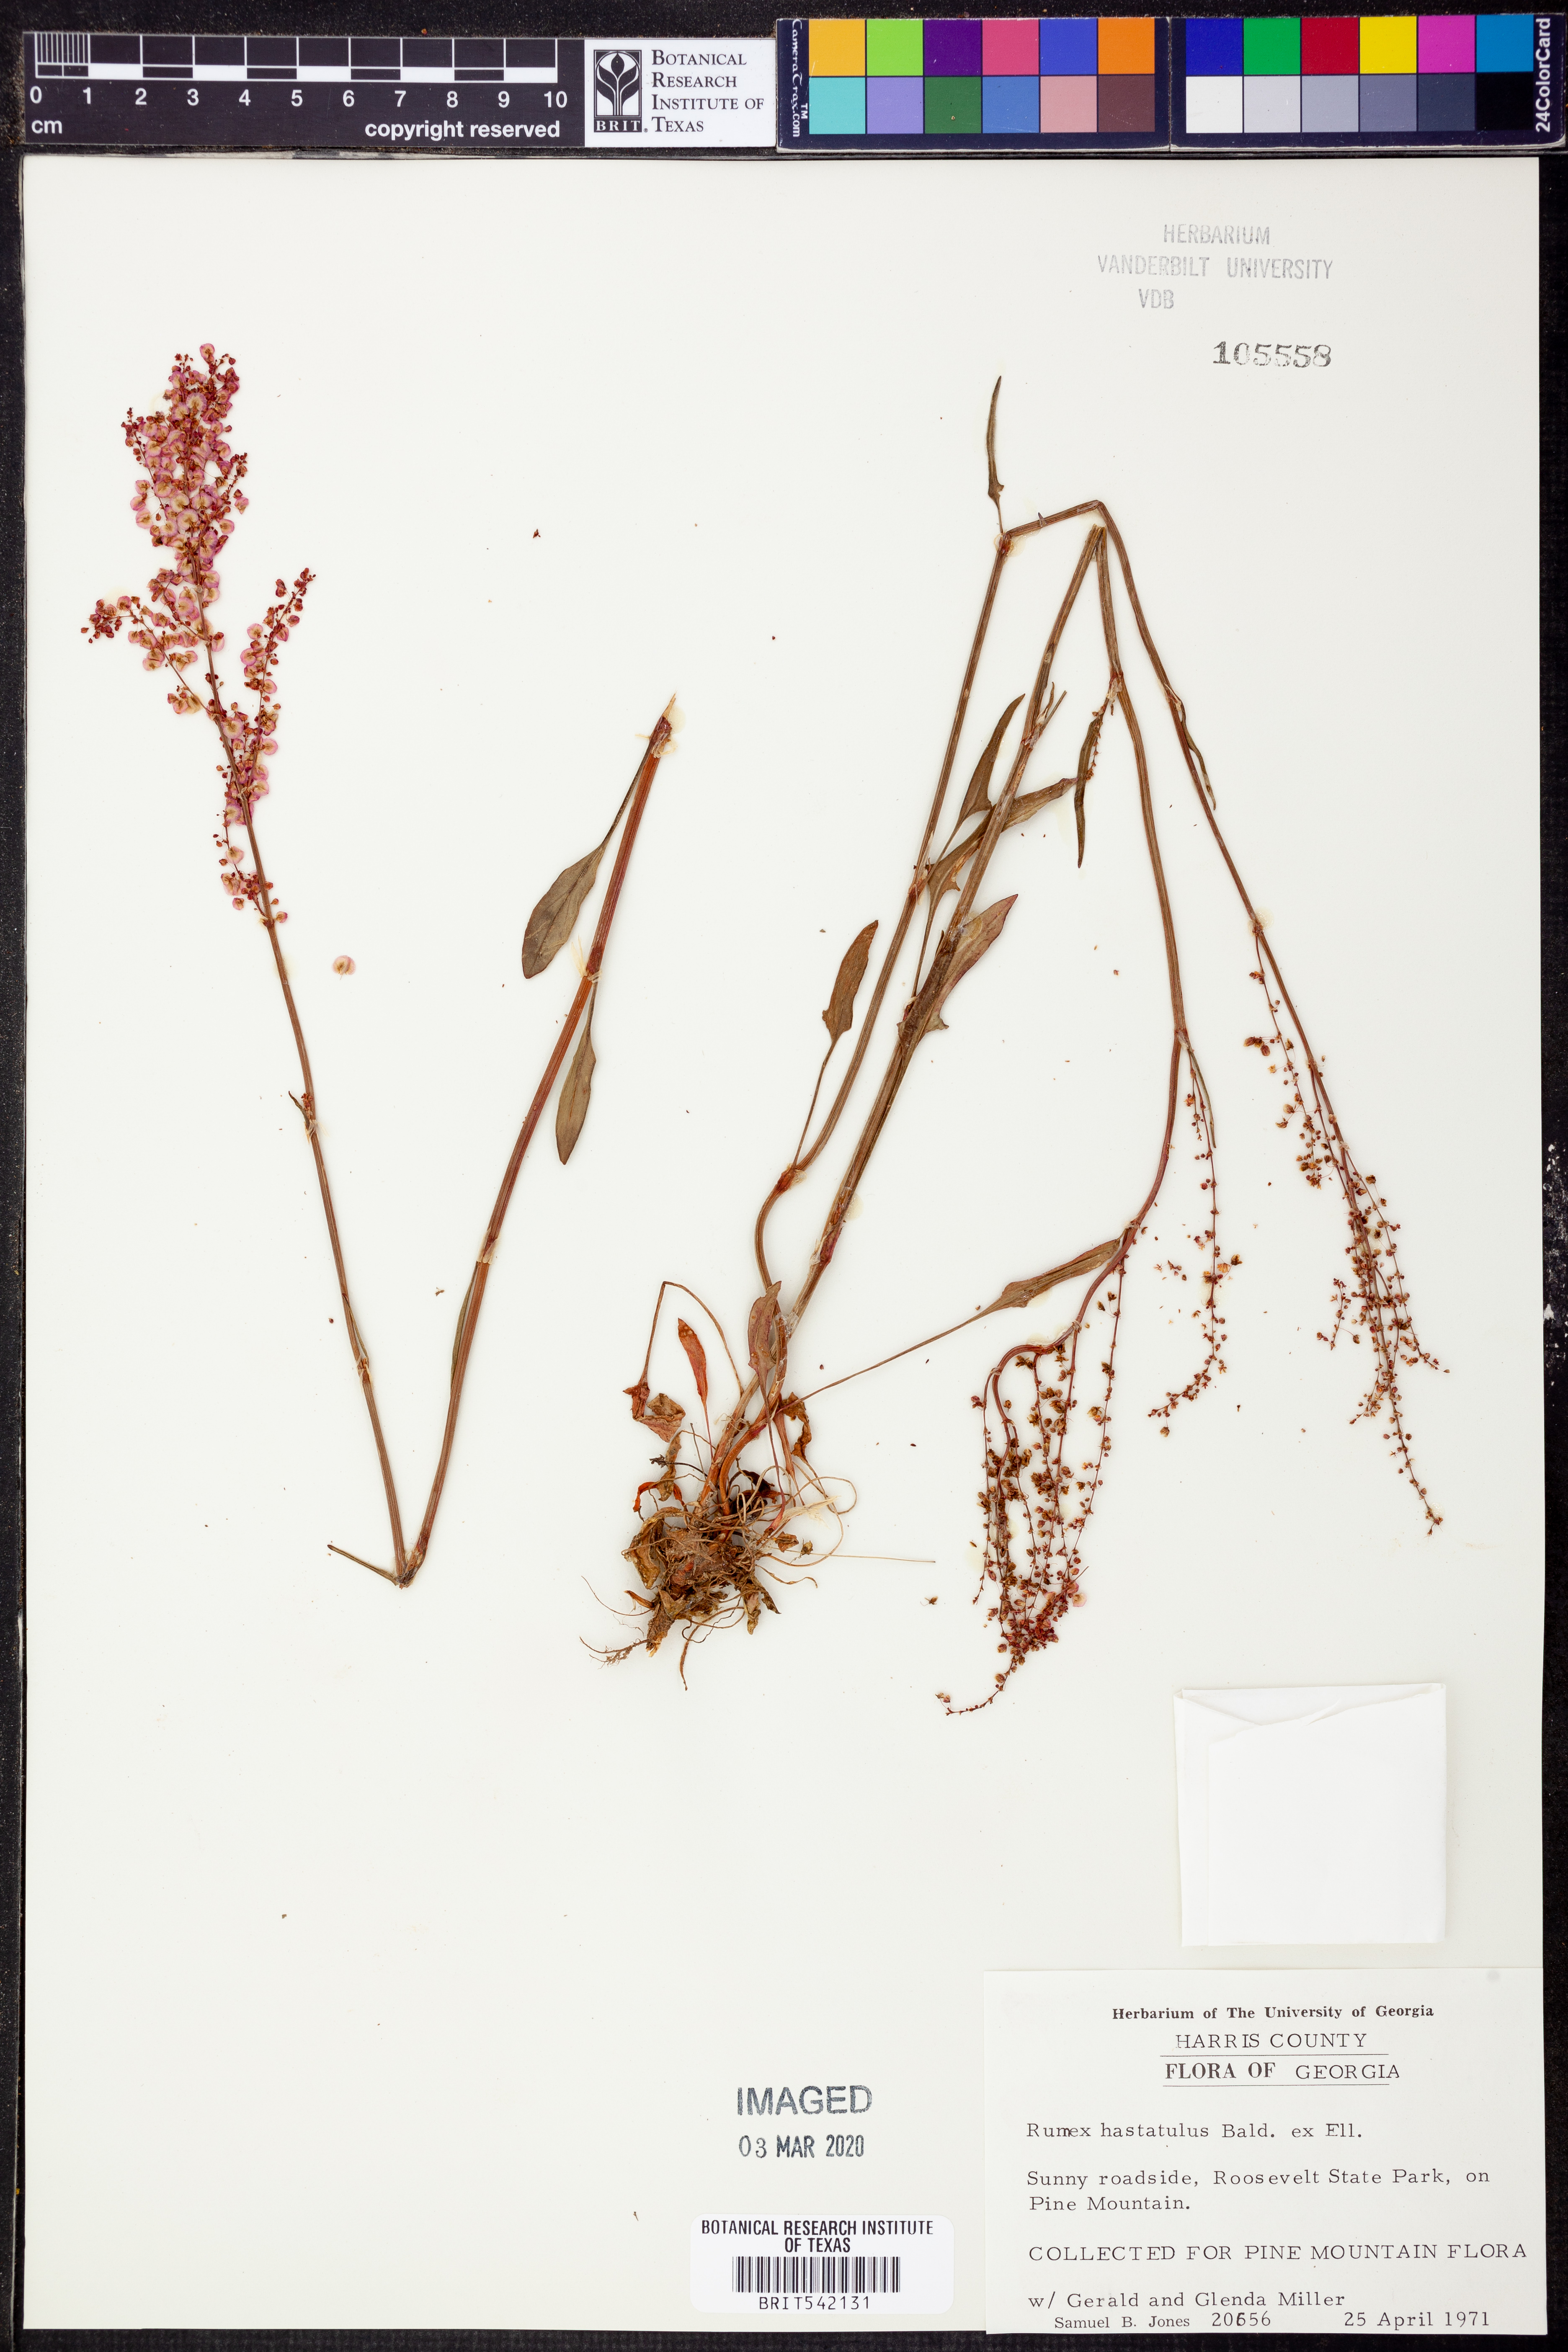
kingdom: Plantae
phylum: Tracheophyta
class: Magnoliopsida
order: Caryophyllales
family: Polygonaceae
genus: Rumex
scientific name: Rumex hastatulus
